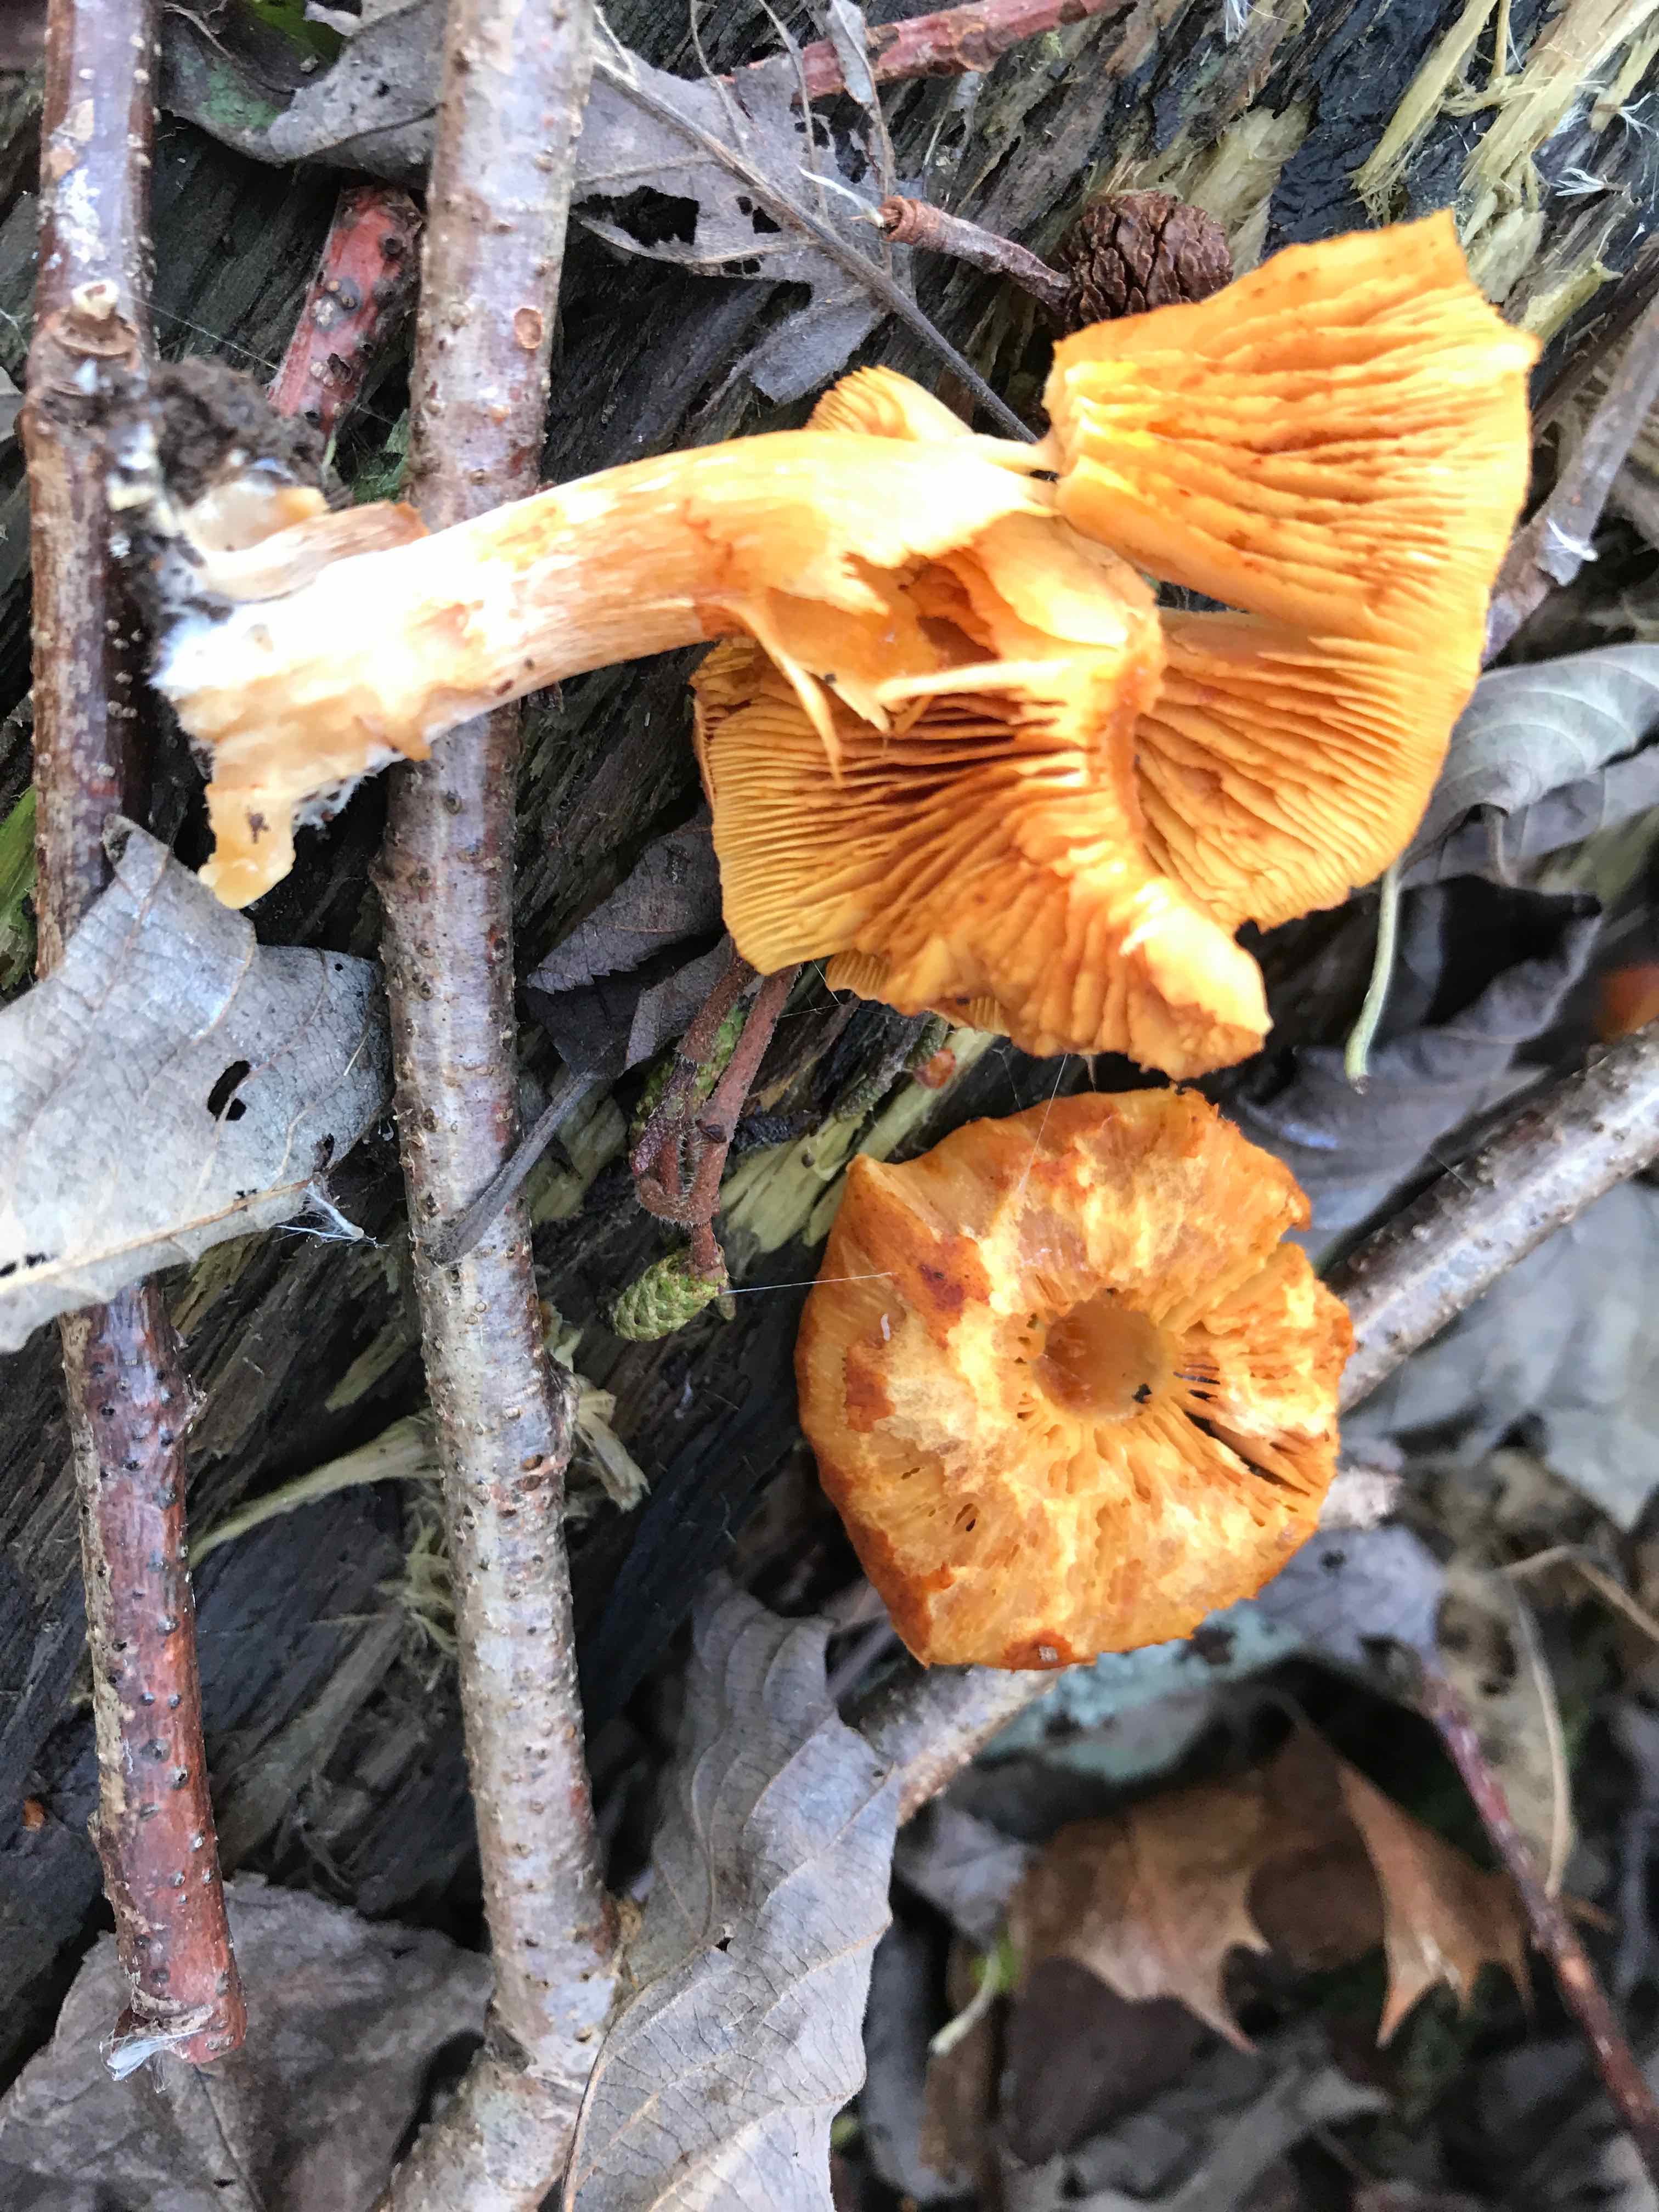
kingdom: Fungi
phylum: Basidiomycota
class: Agaricomycetes
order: Agaricales
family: Hymenogastraceae
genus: Gymnopilus
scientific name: Gymnopilus penetrans
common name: plettet flammehat
